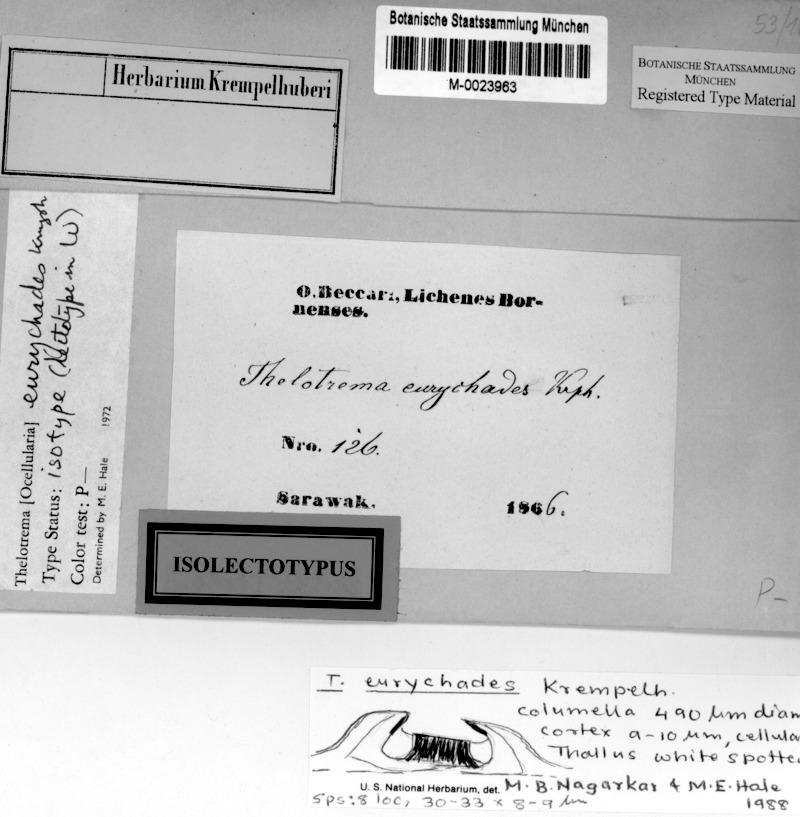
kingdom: Fungi
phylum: Ascomycota
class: Lecanoromycetes
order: Ostropales
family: Graphidaceae
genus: Ocellularia
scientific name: Ocellularia eurychades
